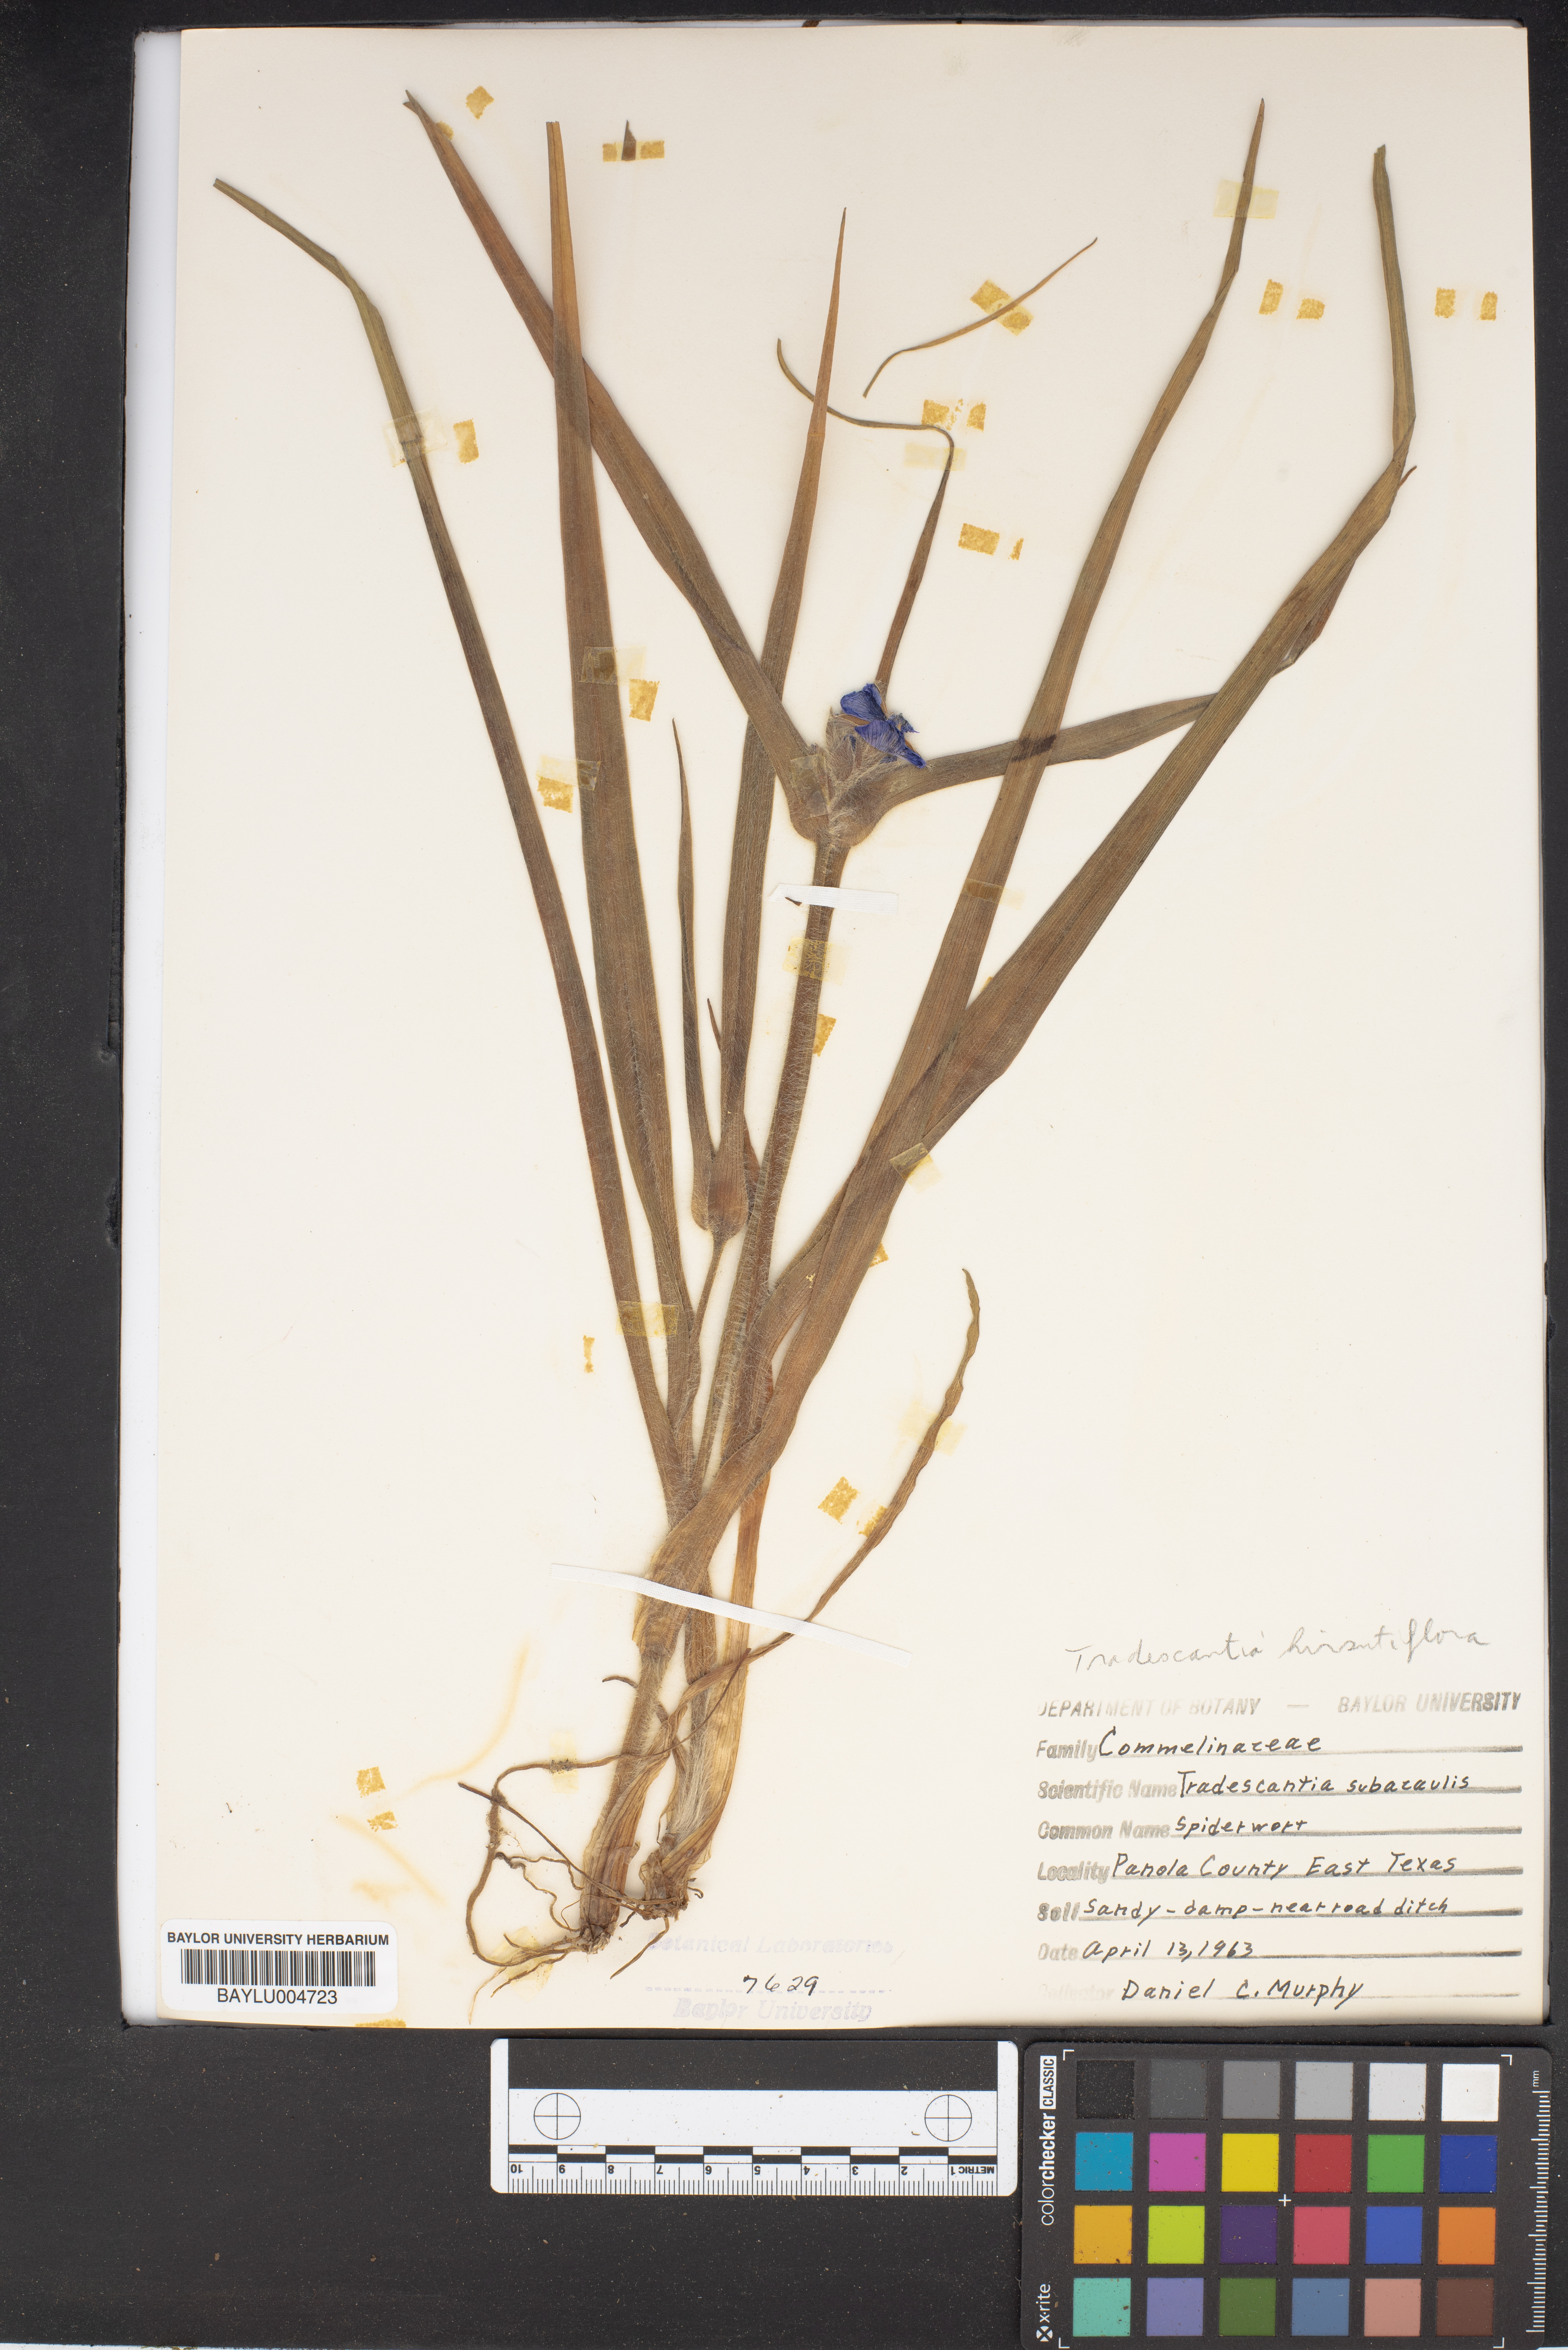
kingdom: Plantae
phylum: Tracheophyta
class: Liliopsida
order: Commelinales
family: Commelinaceae
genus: Tradescantia
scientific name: Tradescantia subacaulis
